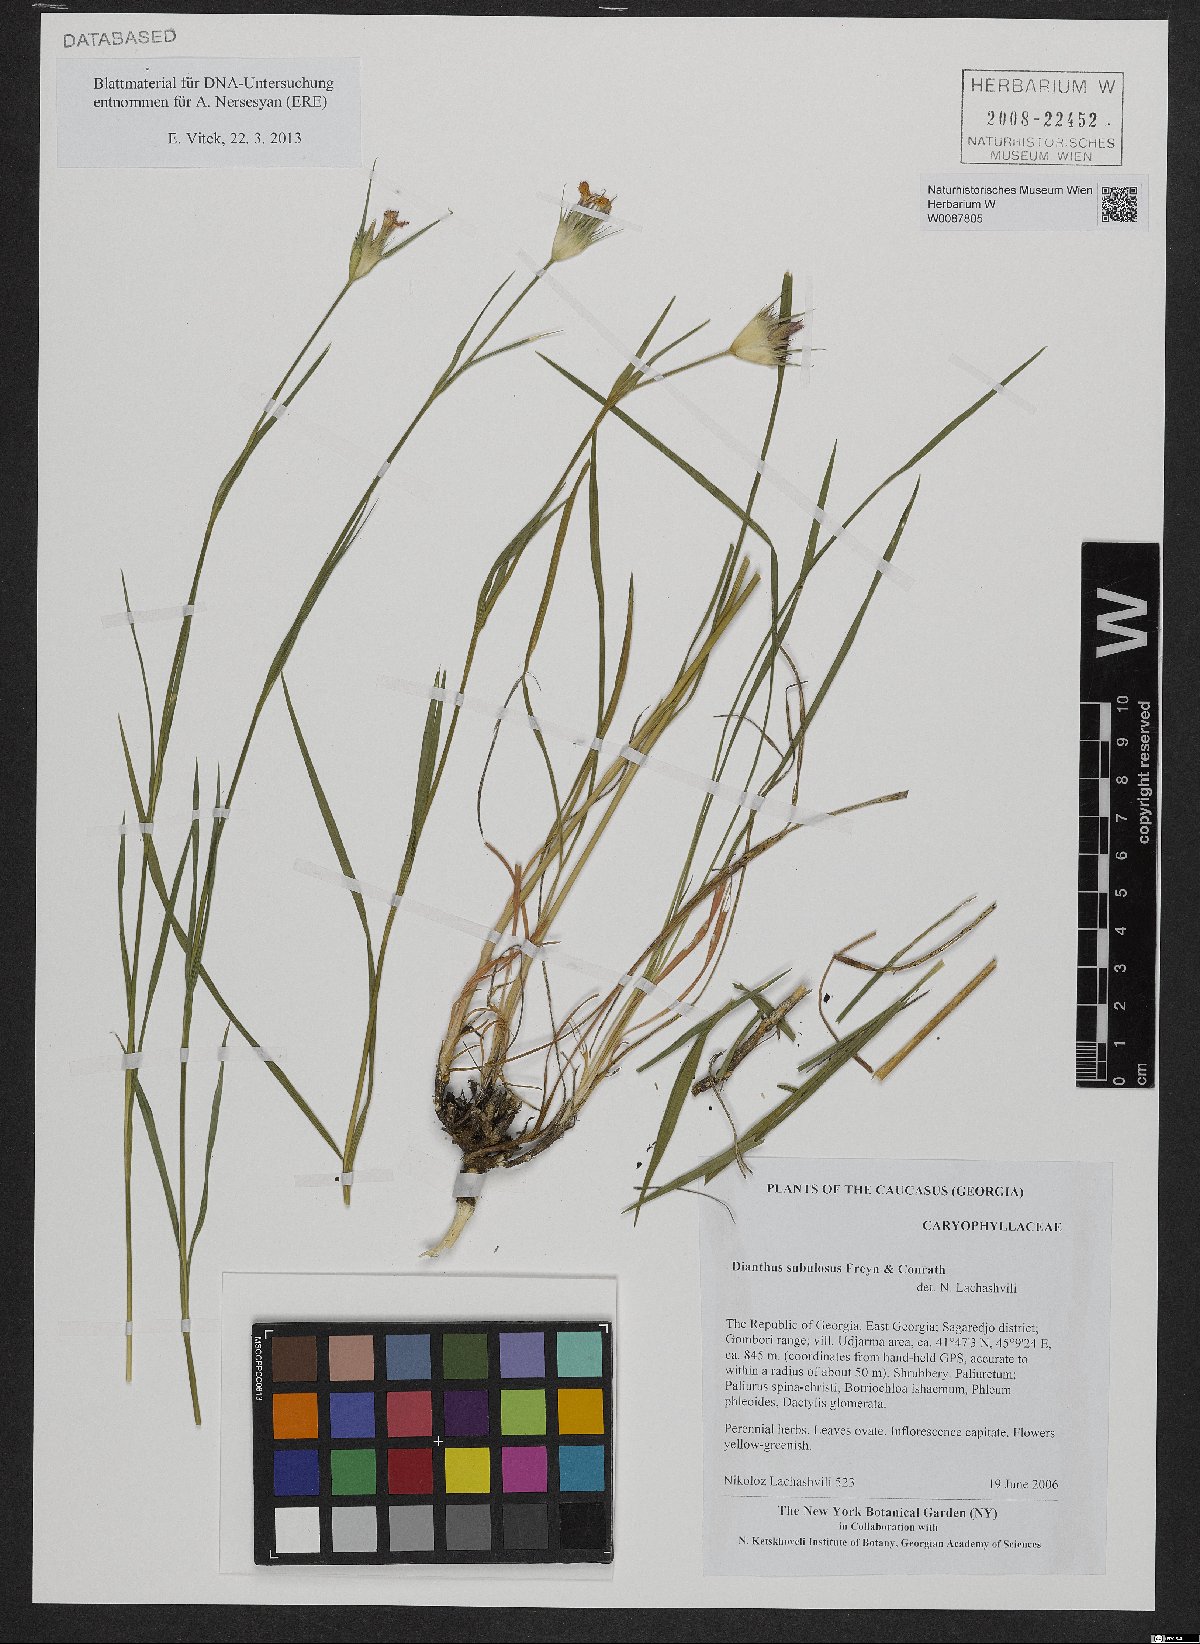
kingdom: Plantae
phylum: Tracheophyta
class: Magnoliopsida
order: Caryophyllales
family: Caryophyllaceae
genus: Dianthus
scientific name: Dianthus subulosus
